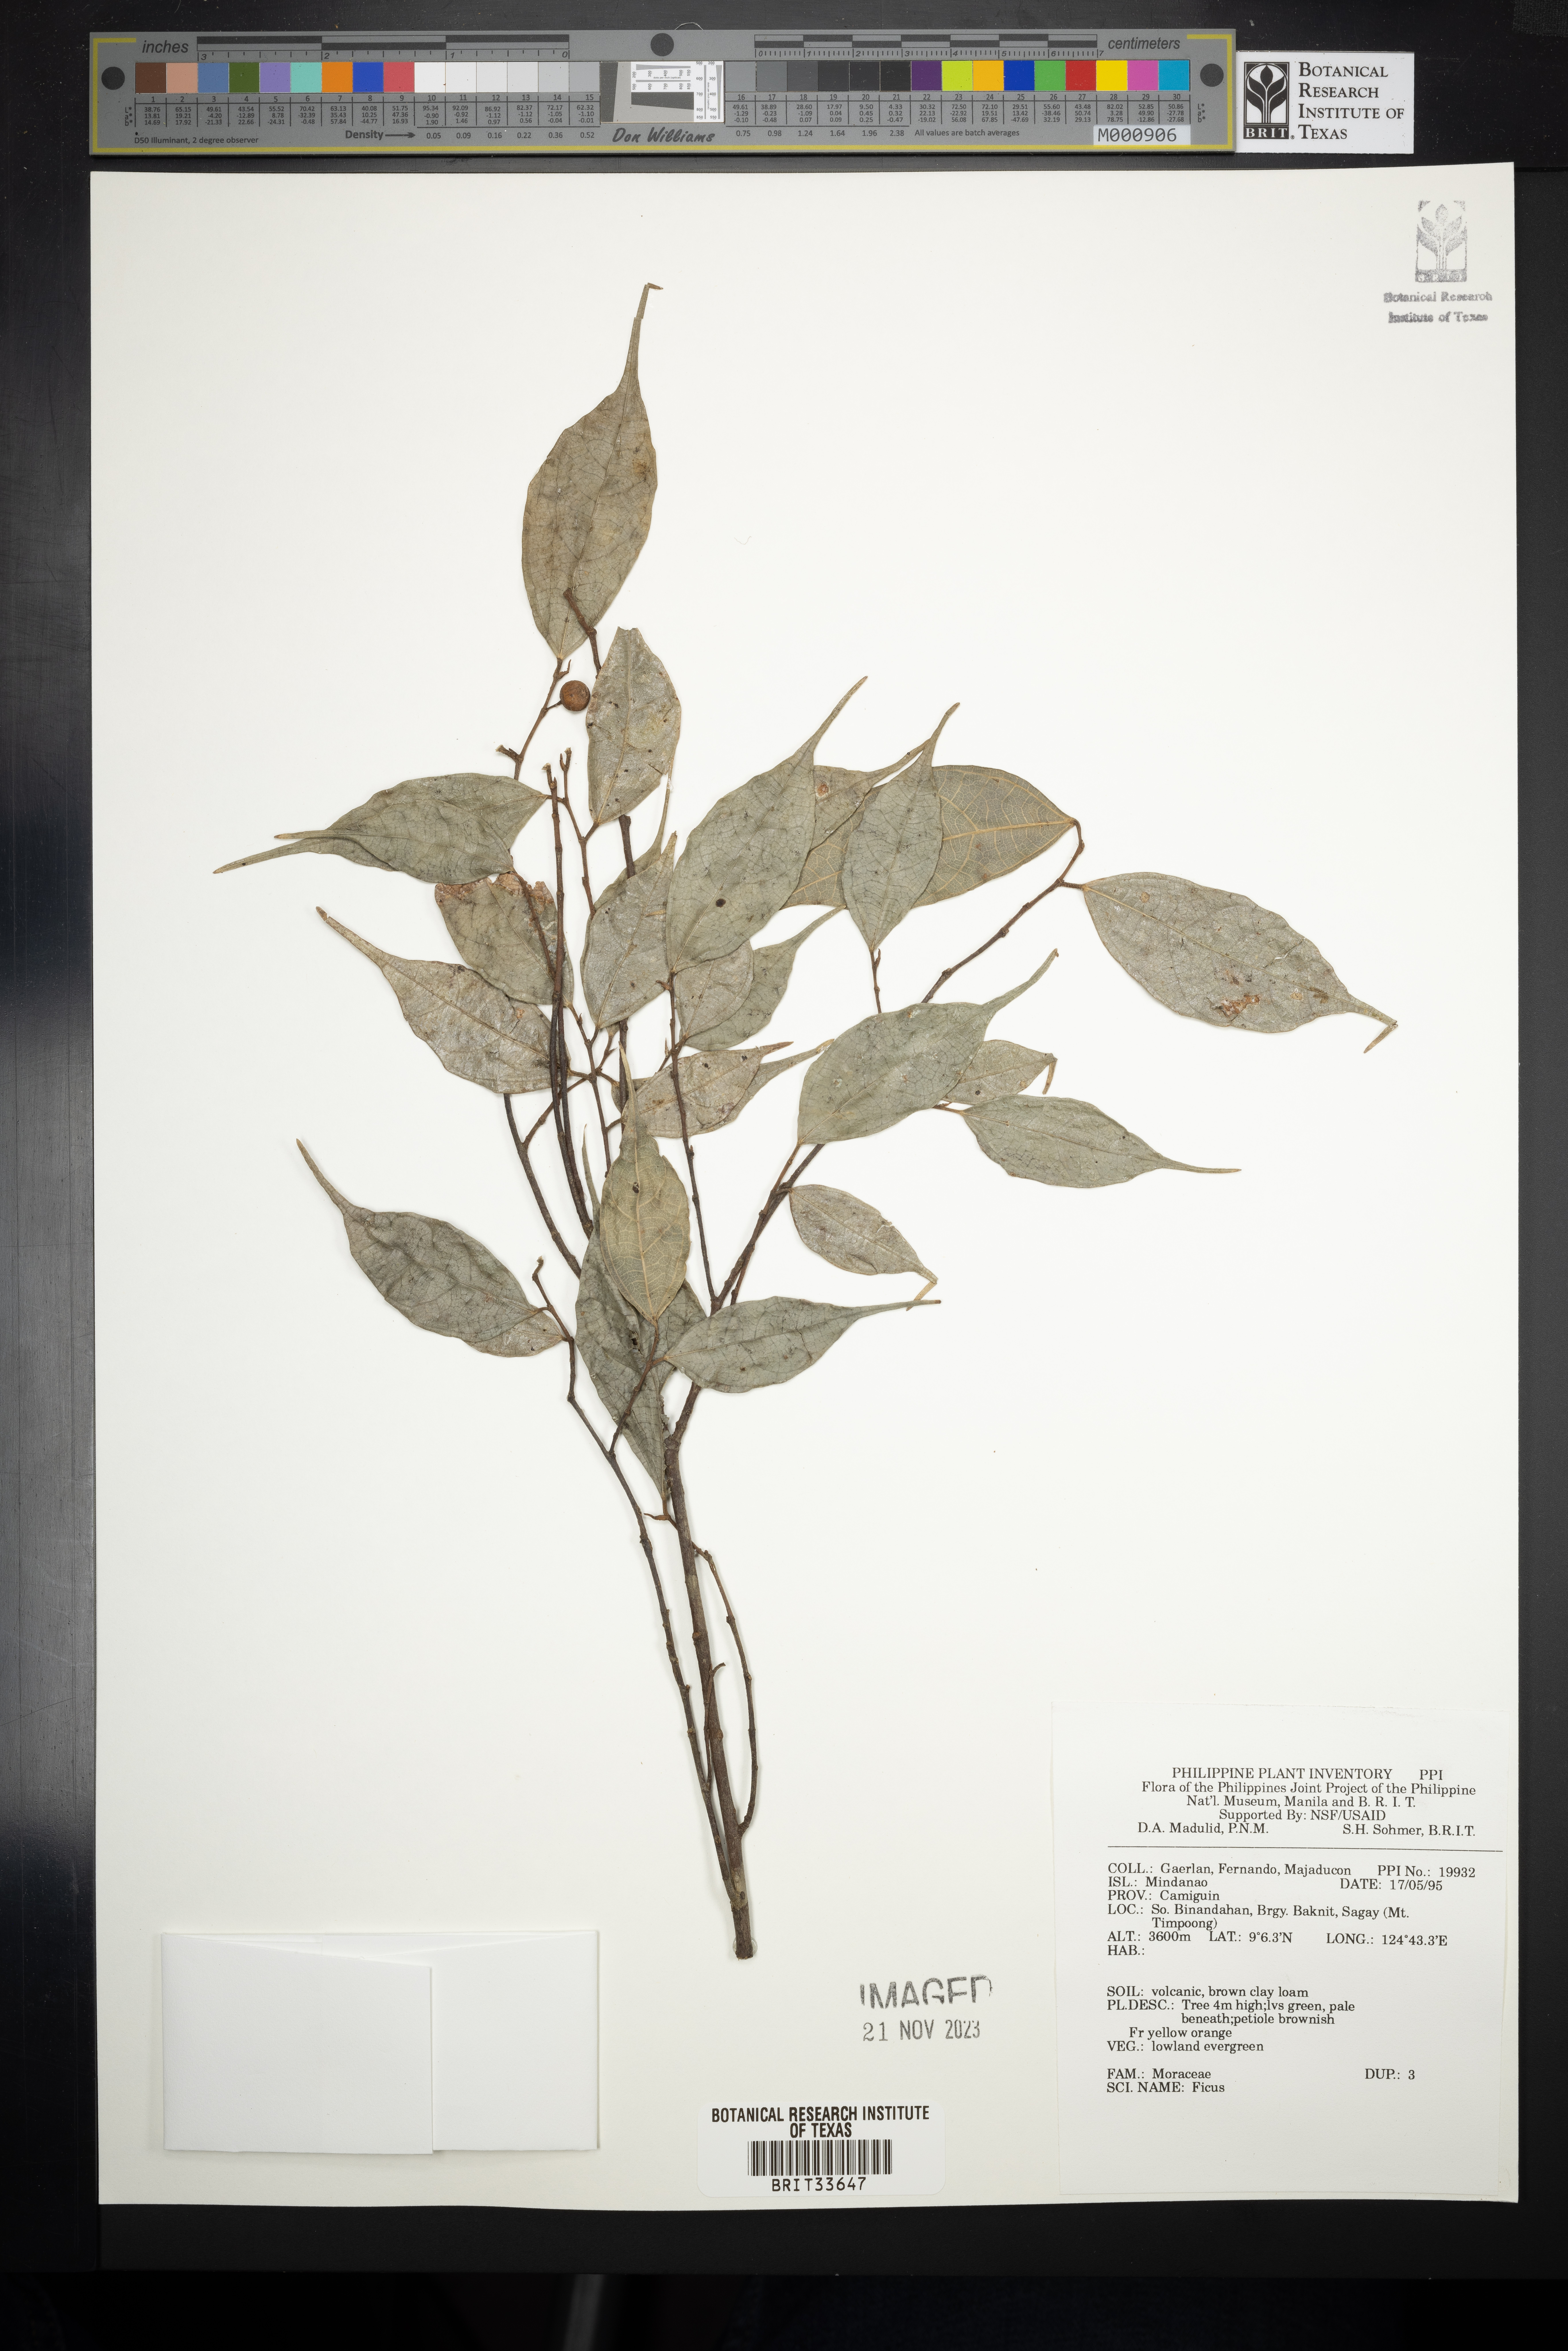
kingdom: Plantae
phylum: Tracheophyta
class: Magnoliopsida
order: Rosales
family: Moraceae
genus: Ficus
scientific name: Ficus
